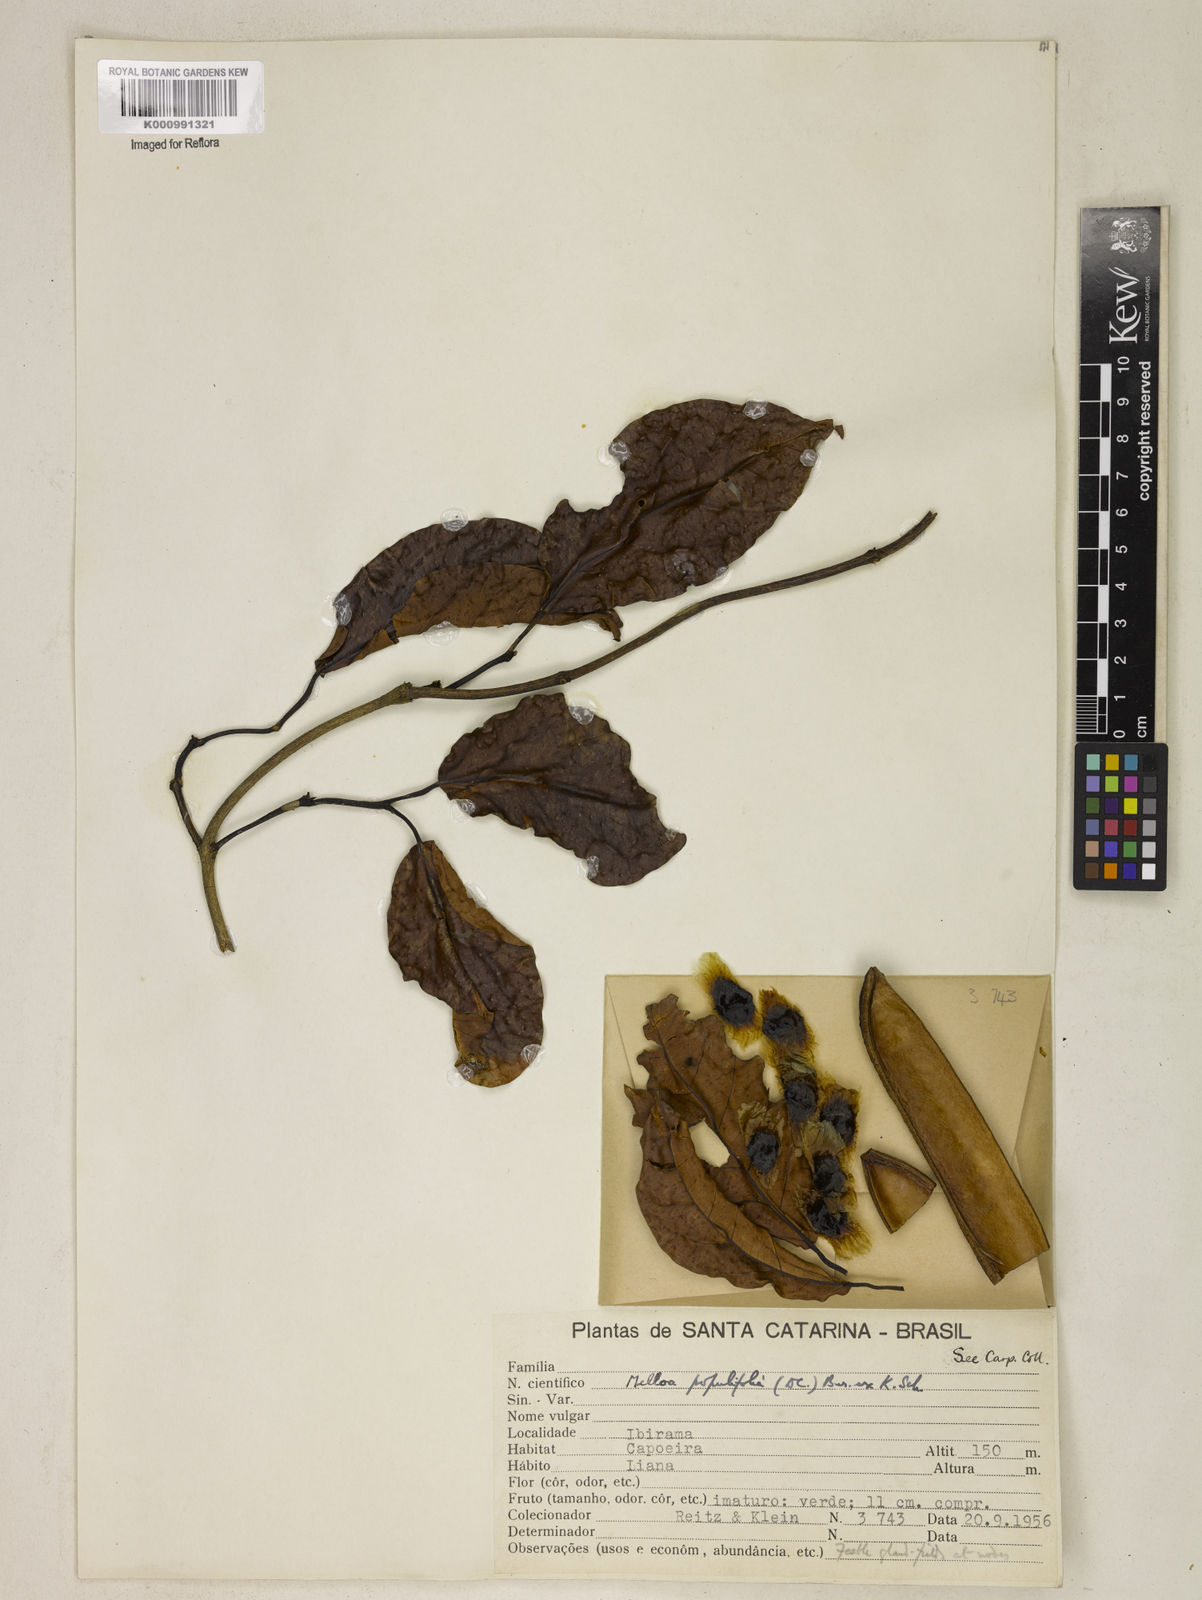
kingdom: Plantae
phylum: Tracheophyta
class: Magnoliopsida
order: Lamiales
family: Bignoniaceae
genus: Dolichandra
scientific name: Dolichandra quadrivalvis
